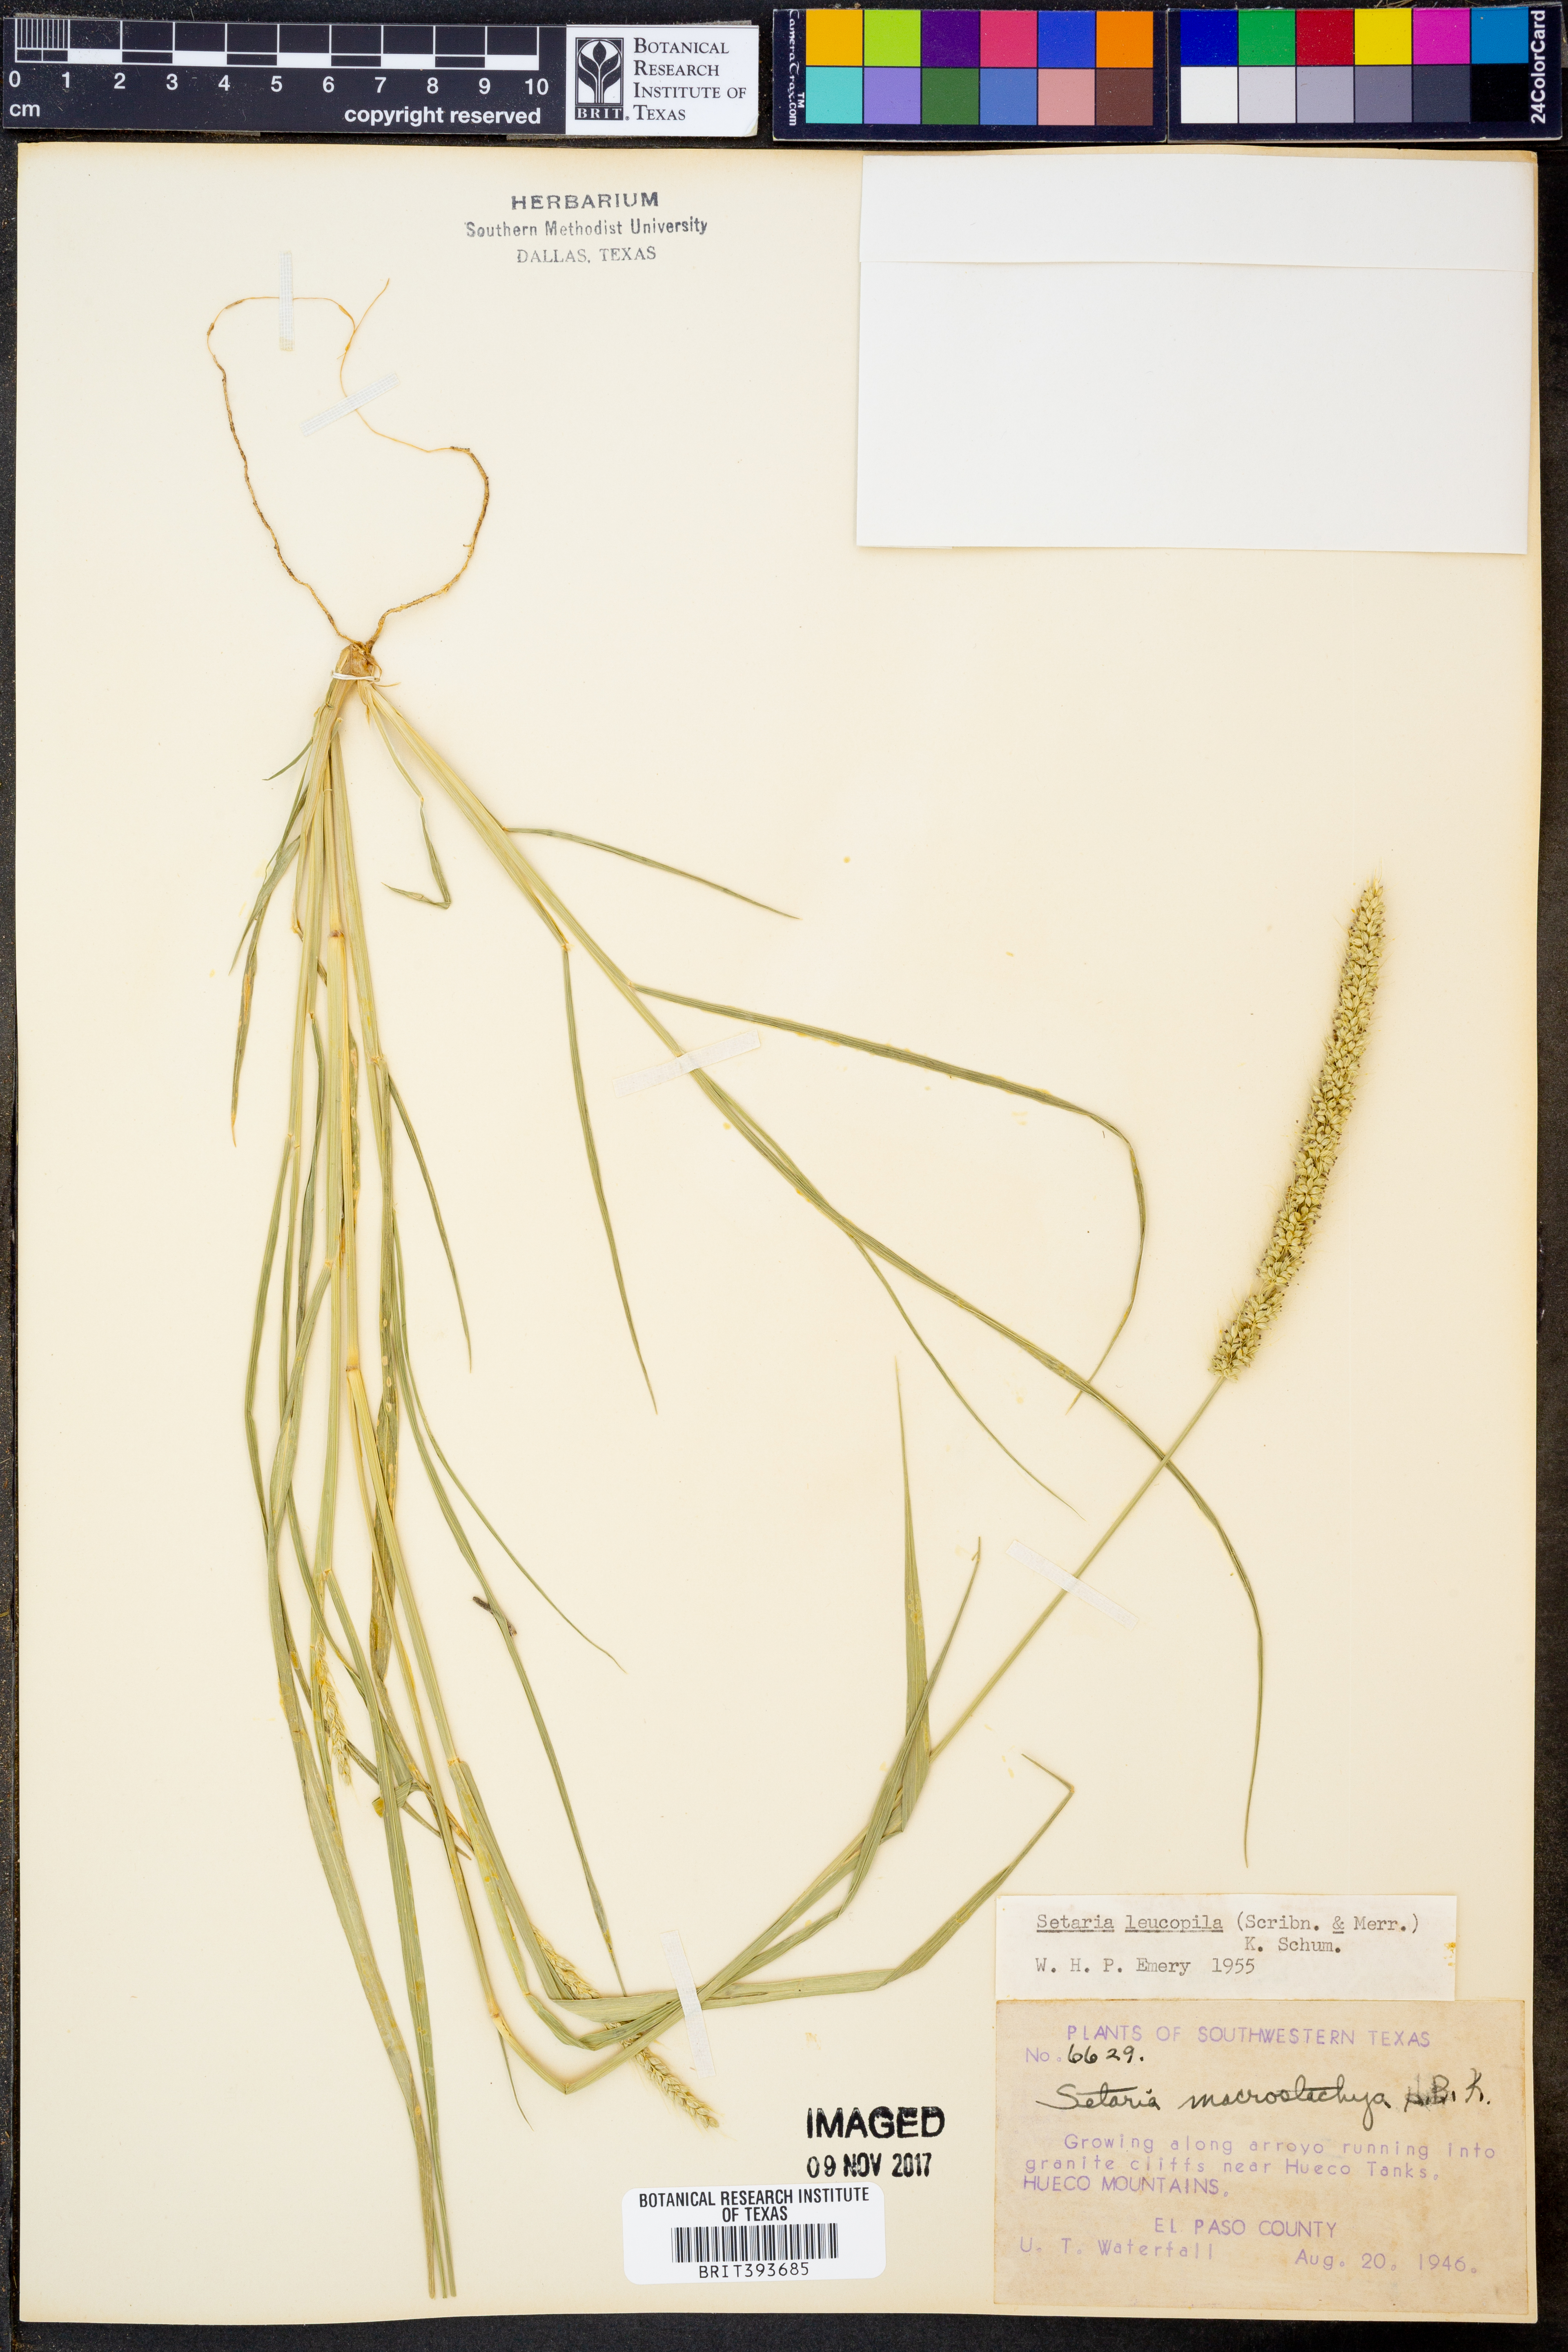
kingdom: Plantae
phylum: Tracheophyta
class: Liliopsida
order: Poales
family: Poaceae
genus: Setaria
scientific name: Setaria leucopila
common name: Plains bristle grass
